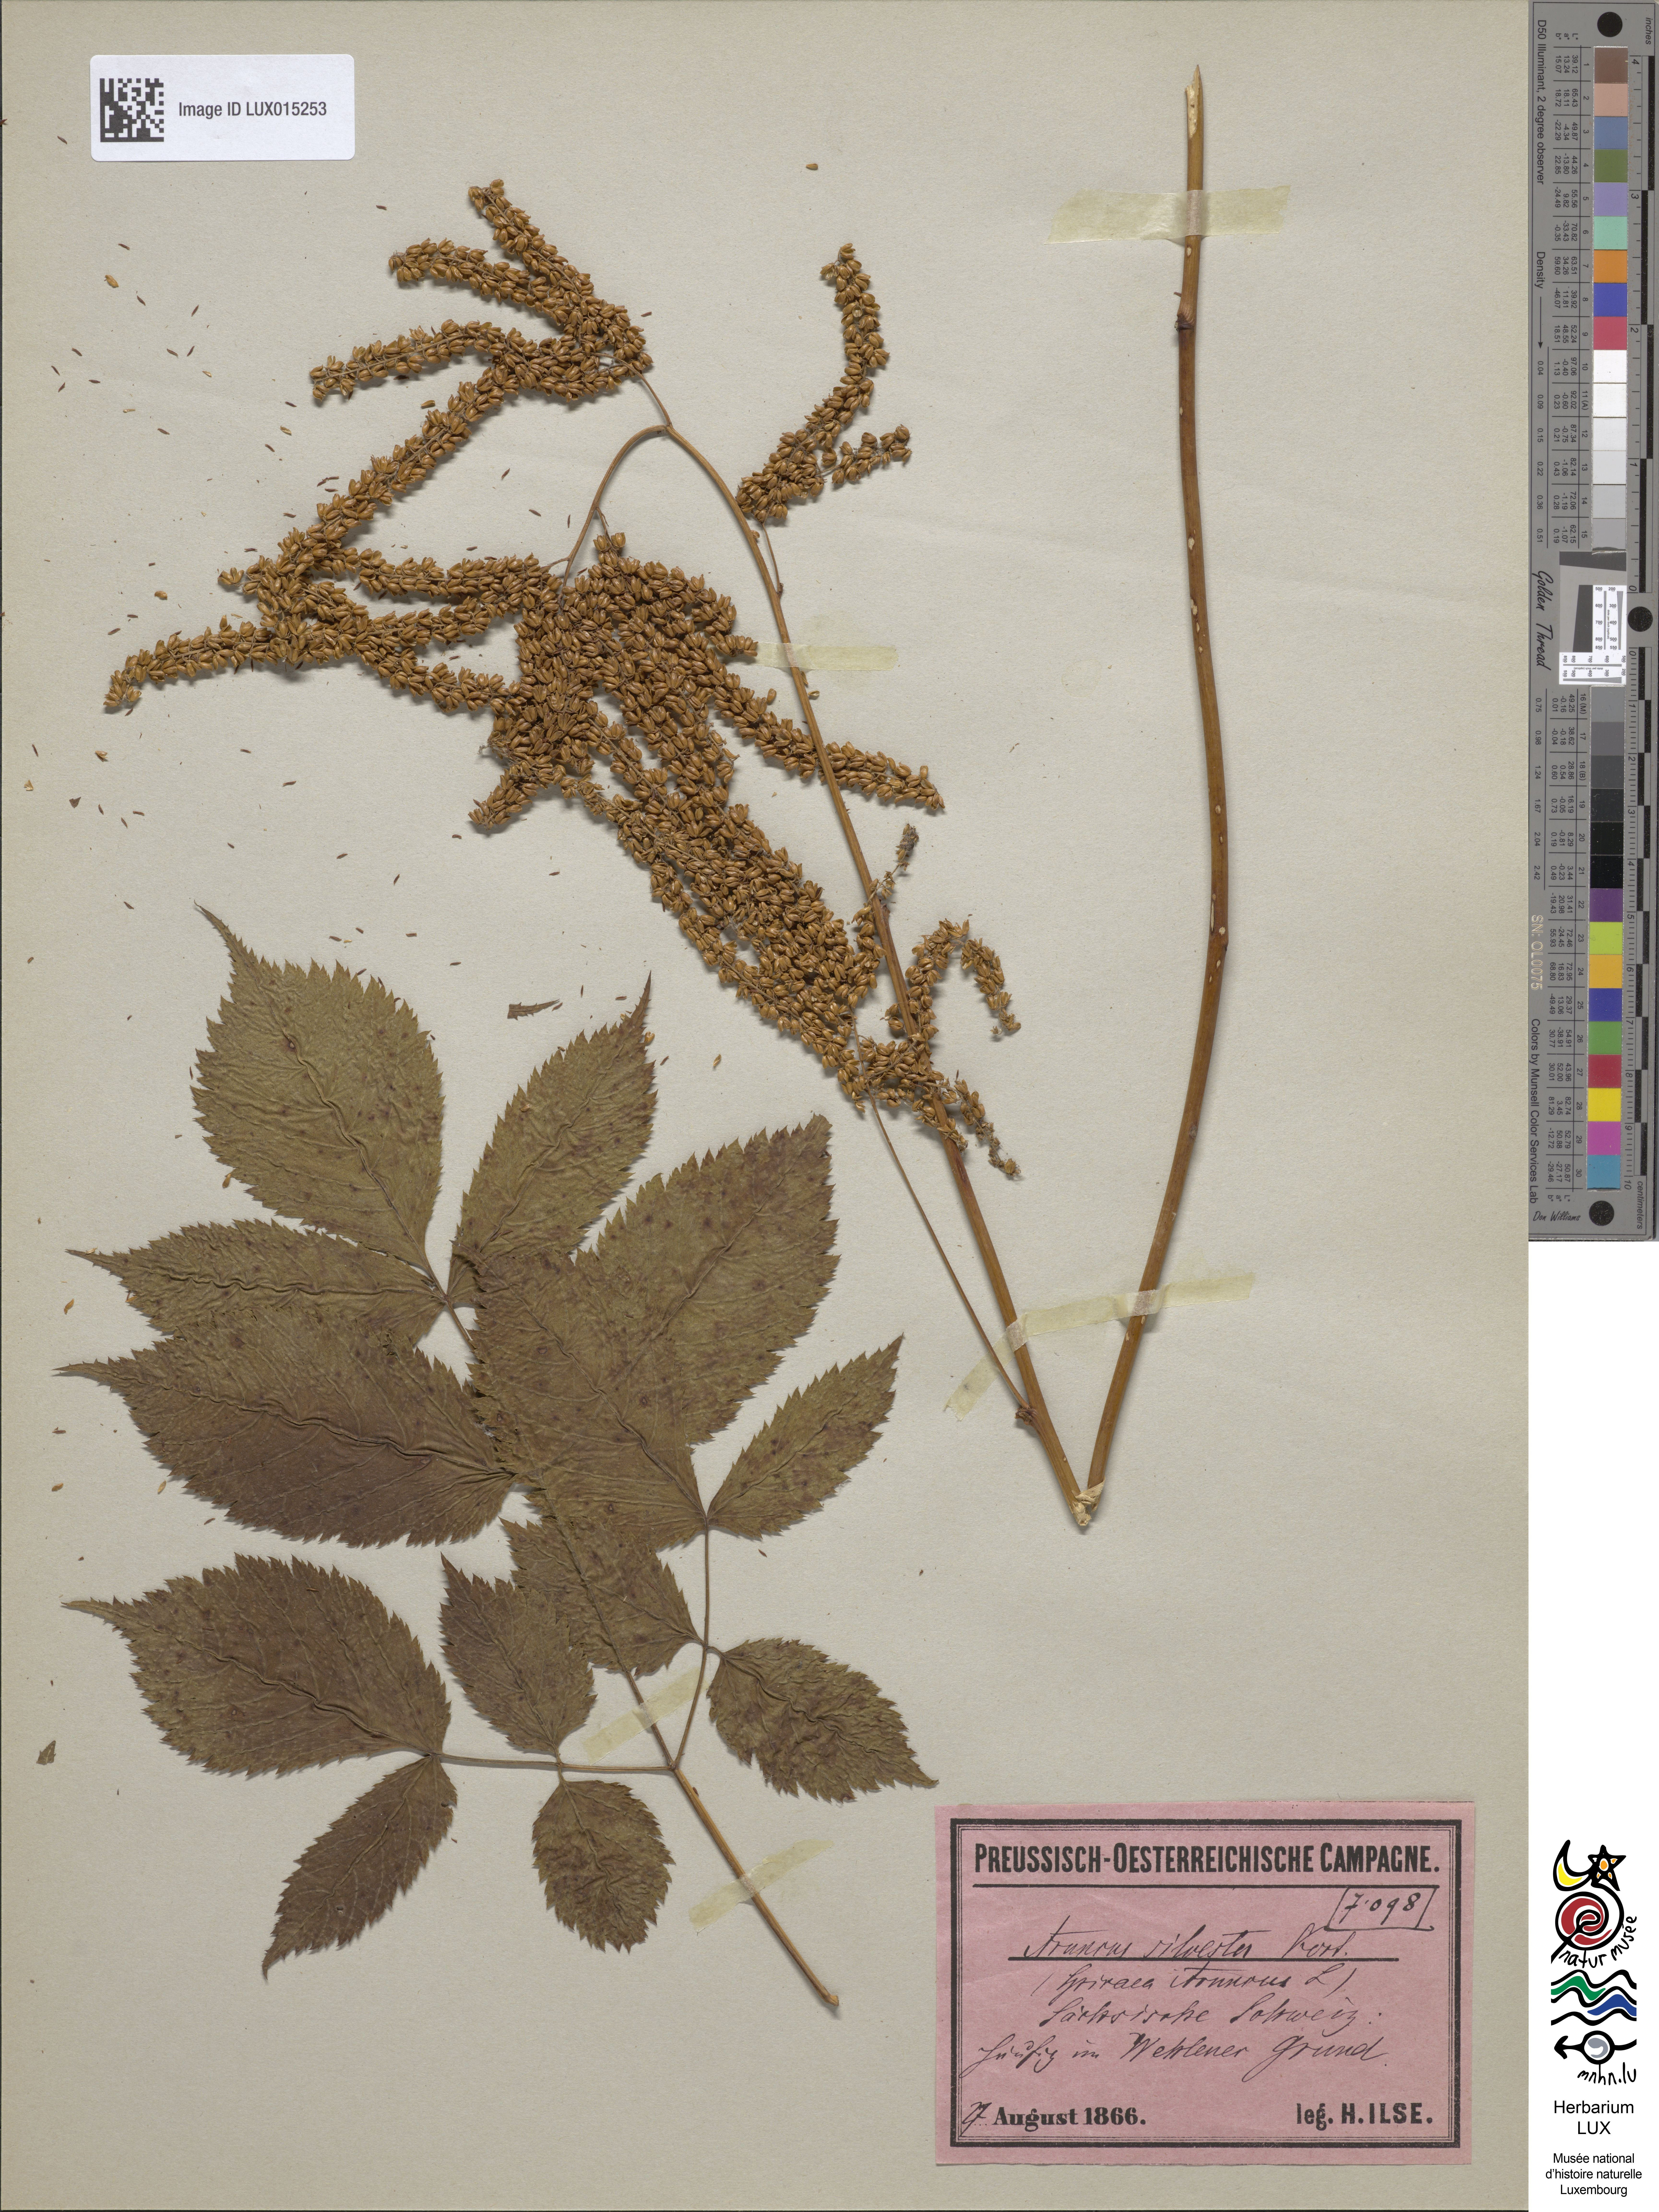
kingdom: Plantae
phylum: Tracheophyta
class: Magnoliopsida
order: Rosales
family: Rosaceae
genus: Aruncus
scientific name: Aruncus dioicus
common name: Buck's-beard
